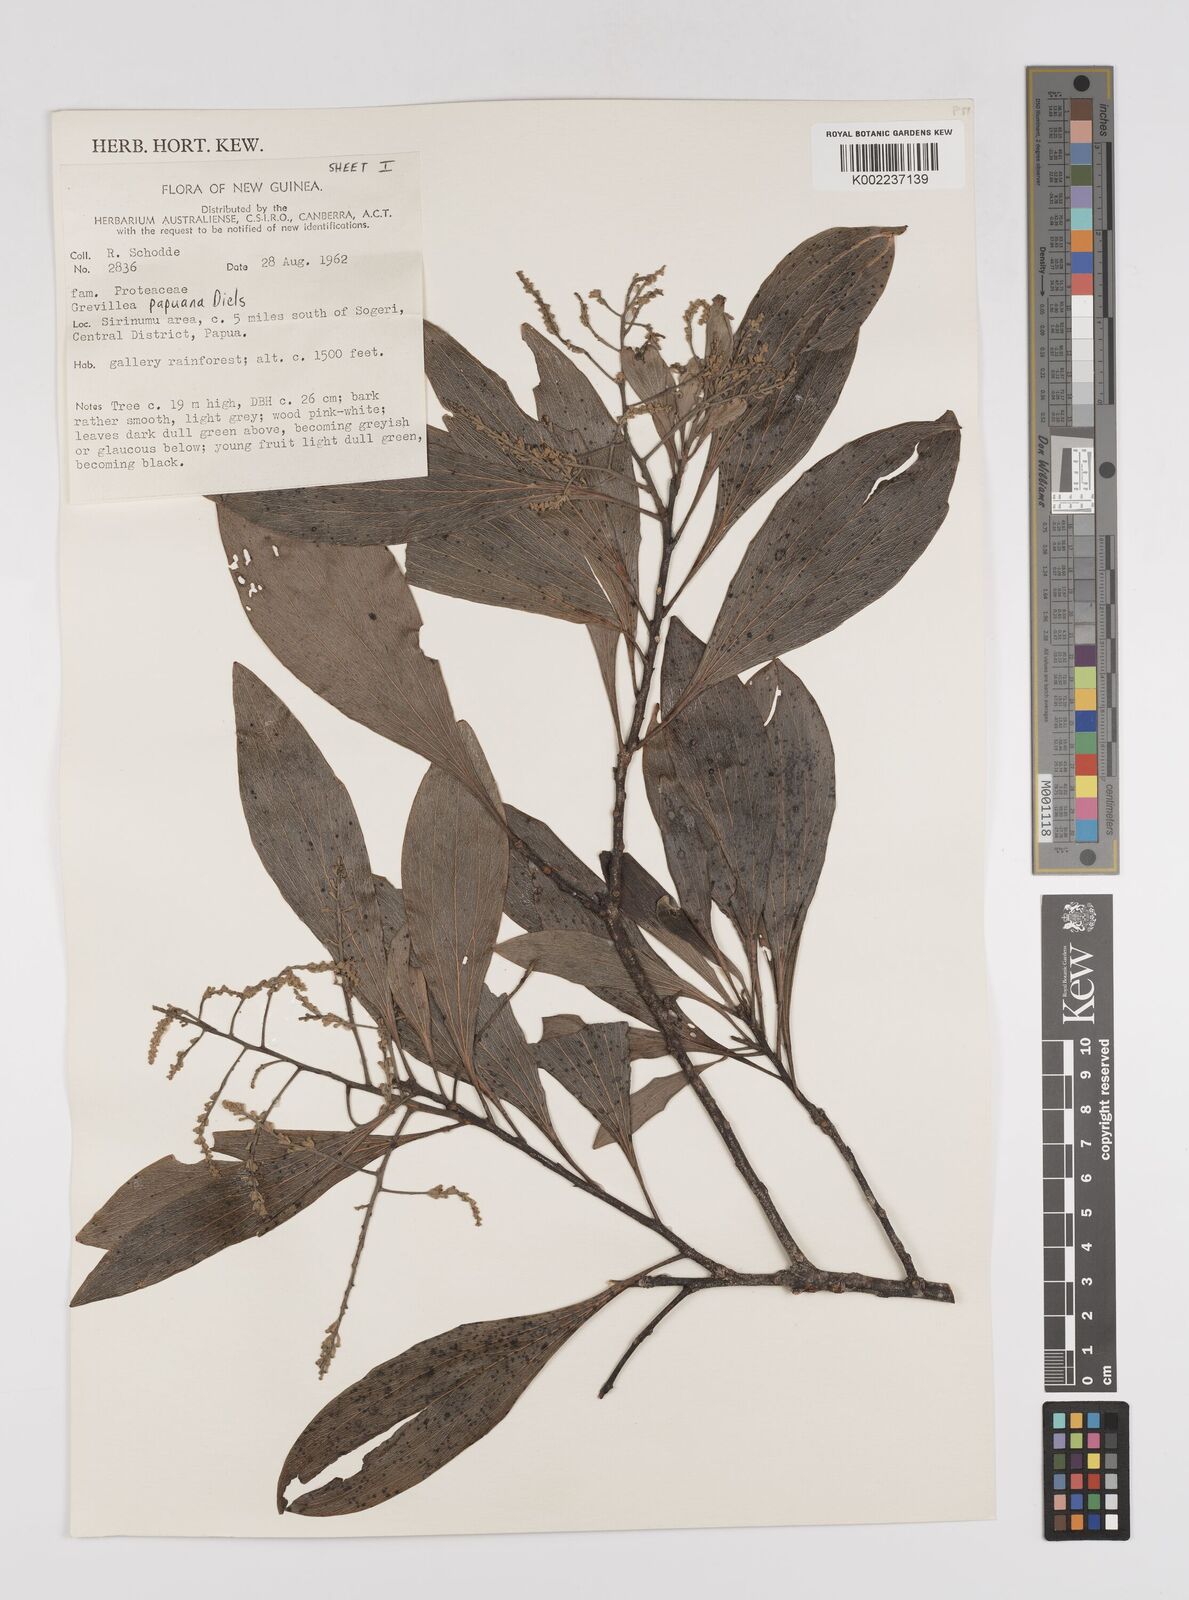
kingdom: Plantae
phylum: Tracheophyta
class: Magnoliopsida
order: Proteales
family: Proteaceae
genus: Grevillea
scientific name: Grevillea papuana
